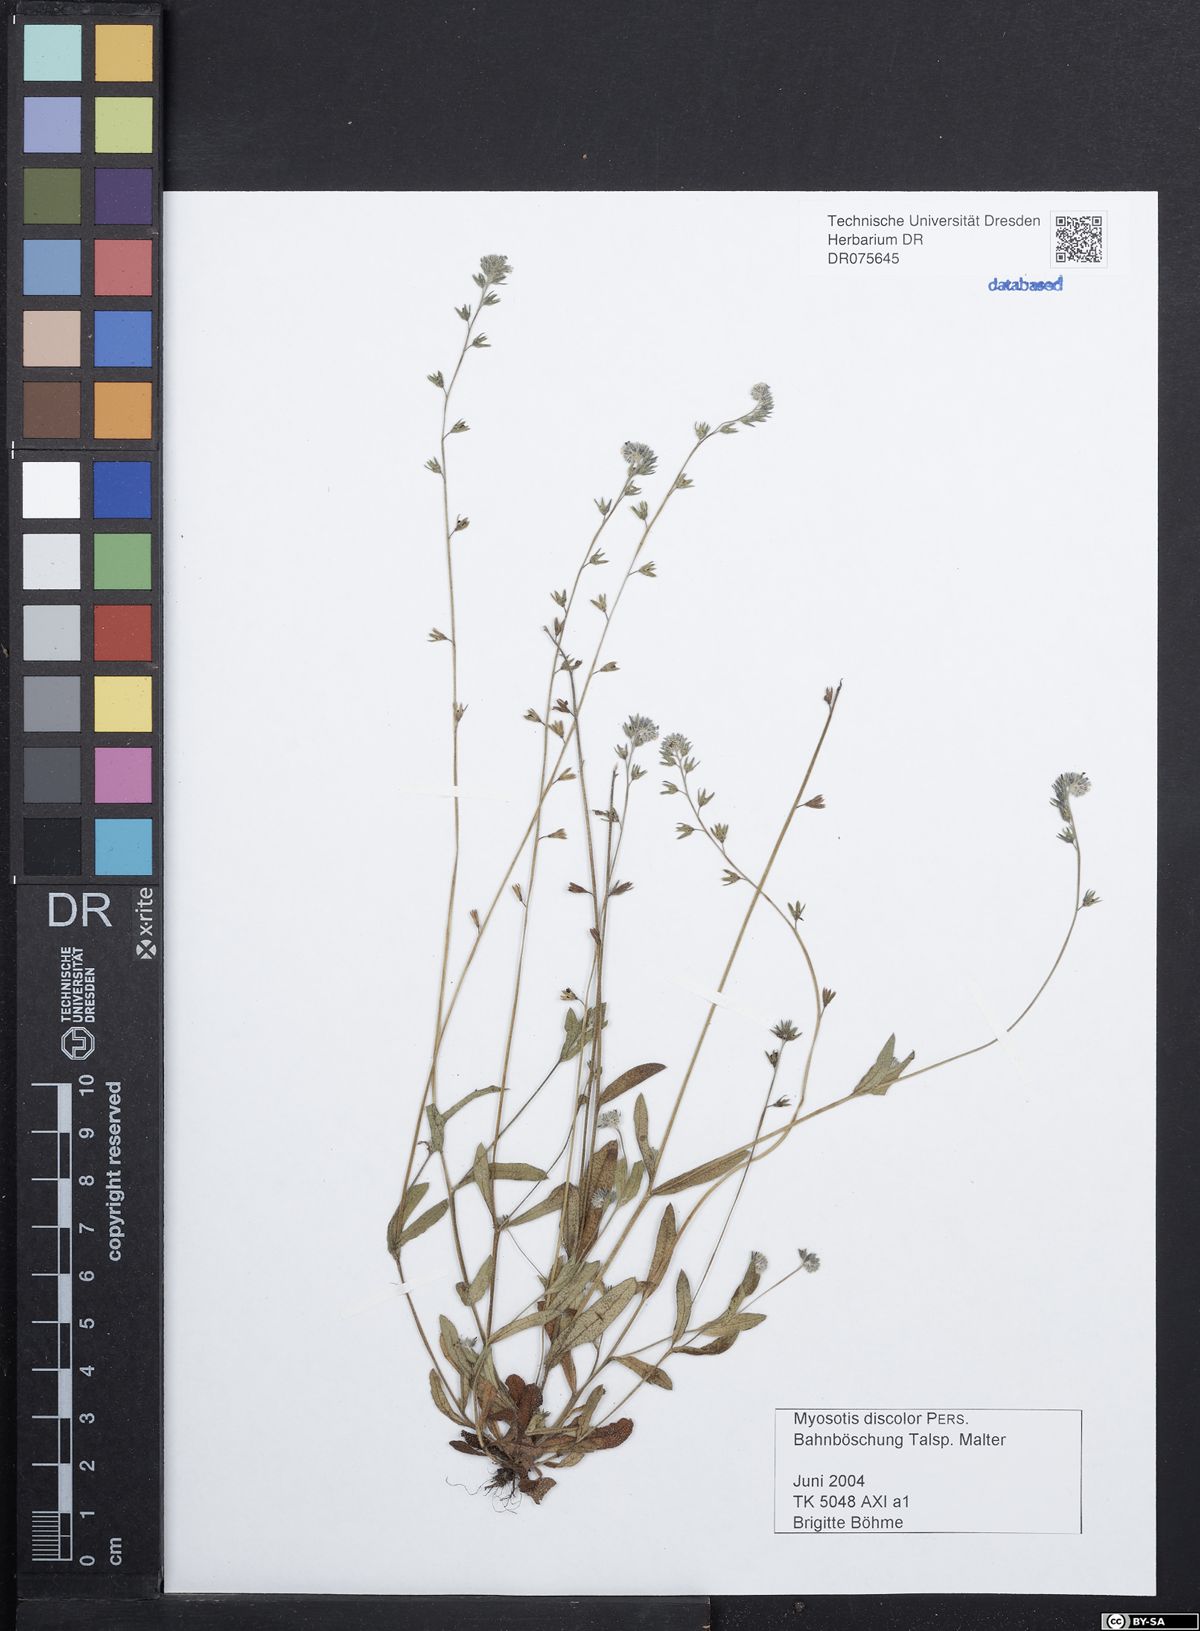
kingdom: Plantae
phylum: Tracheophyta
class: Magnoliopsida
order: Boraginales
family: Boraginaceae
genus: Myosotis
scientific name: Myosotis discolor
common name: Changing forget-me-not
